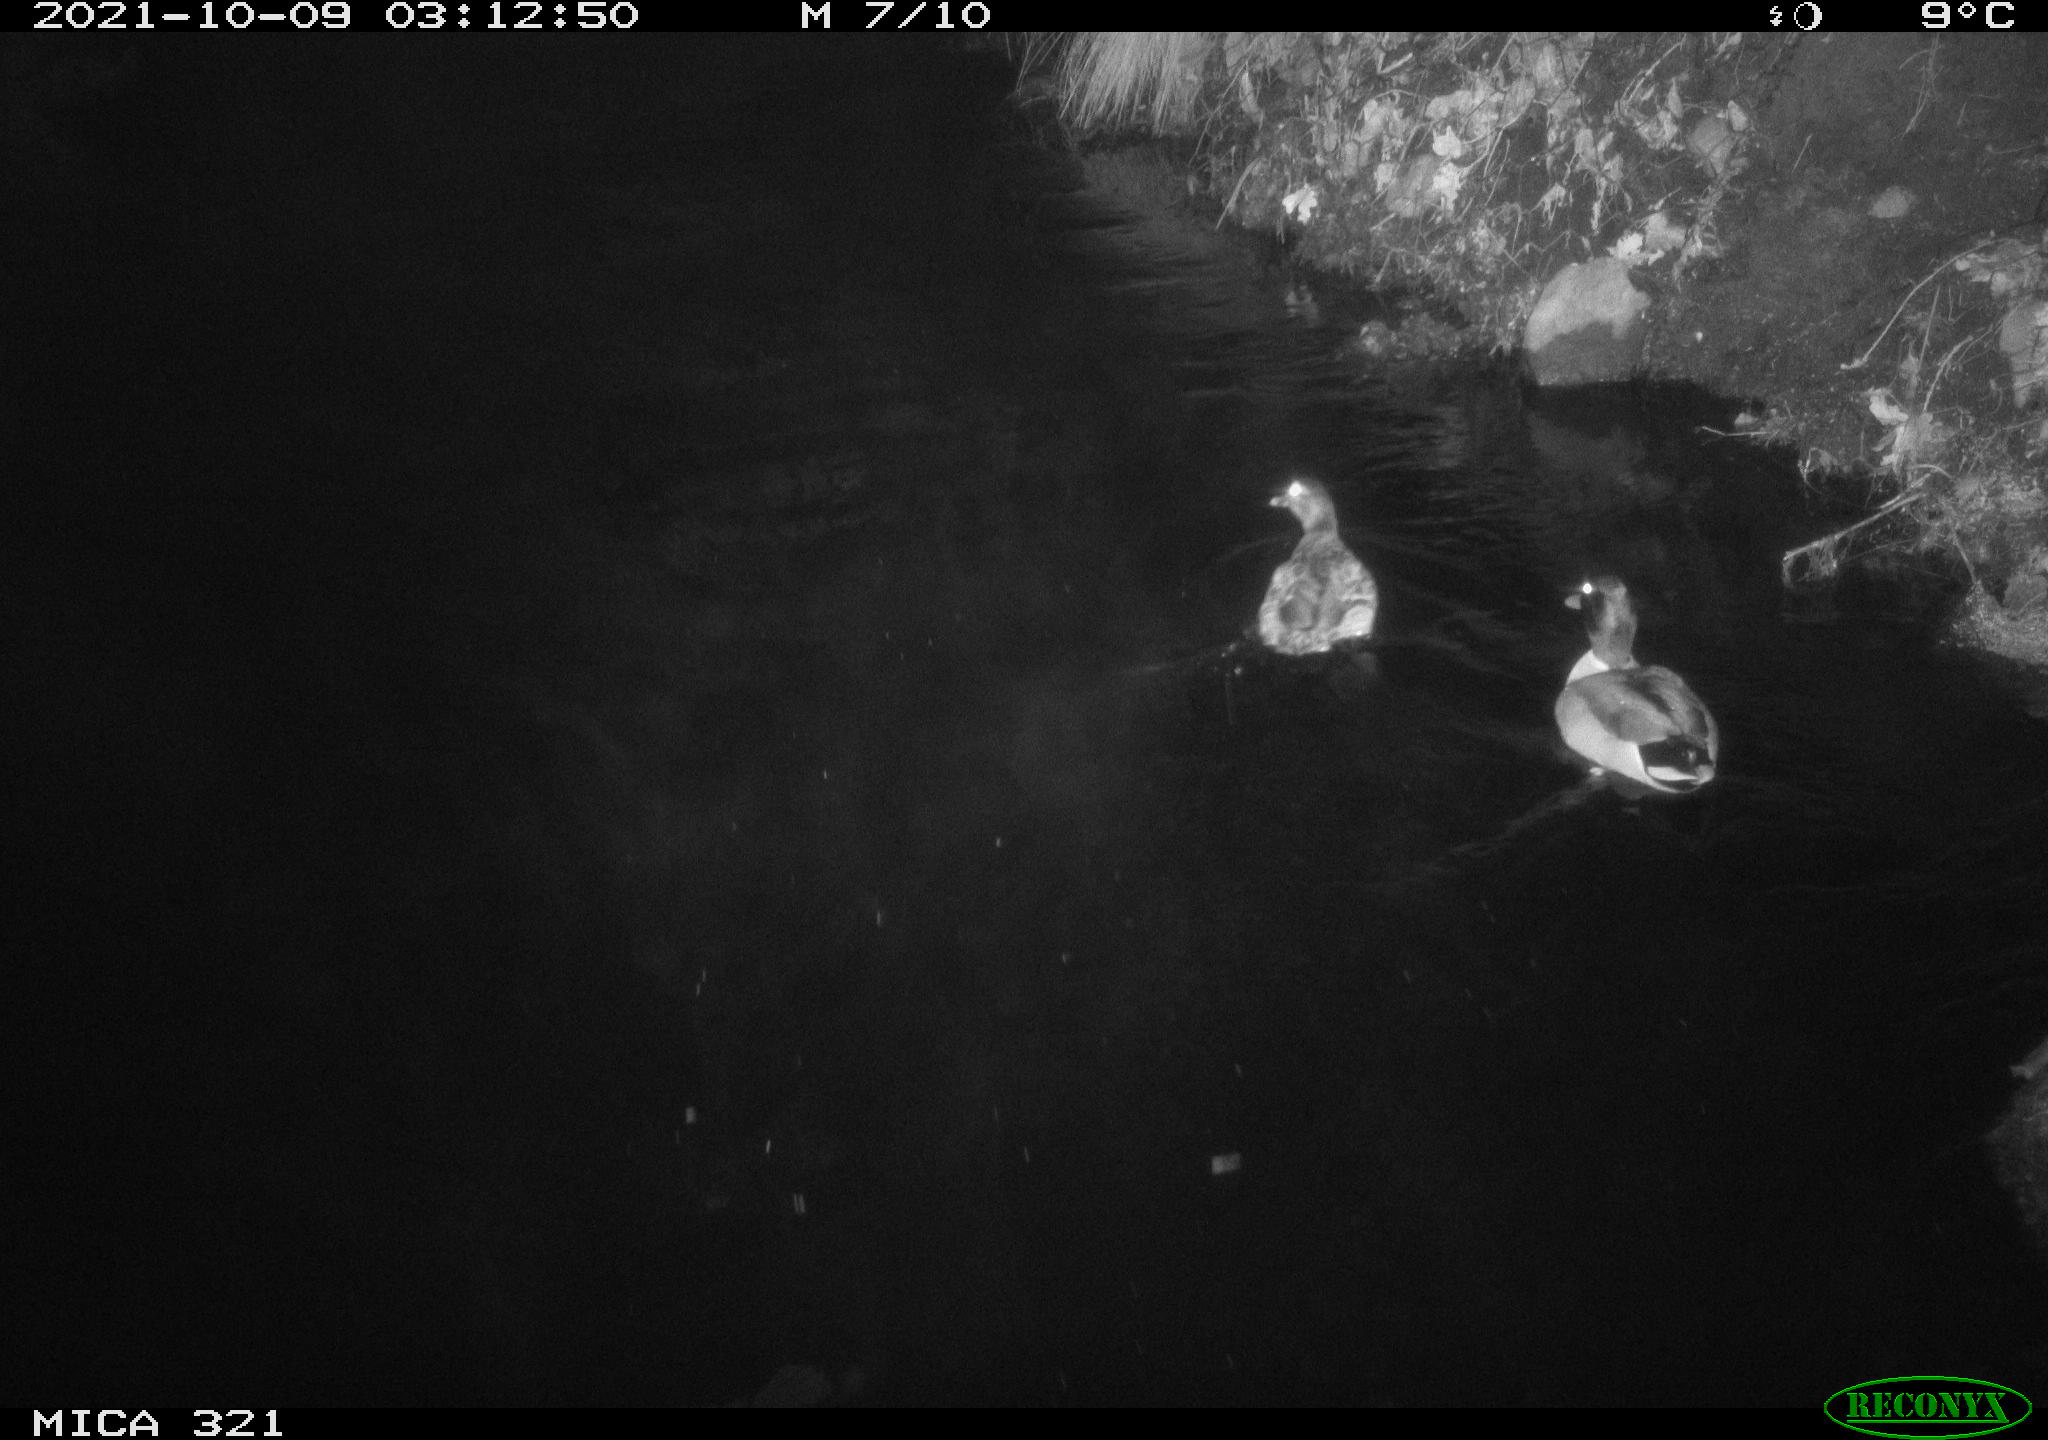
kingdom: Animalia
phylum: Chordata
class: Aves
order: Anseriformes
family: Anatidae
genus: Anas
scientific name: Anas platyrhynchos
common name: Mallard
